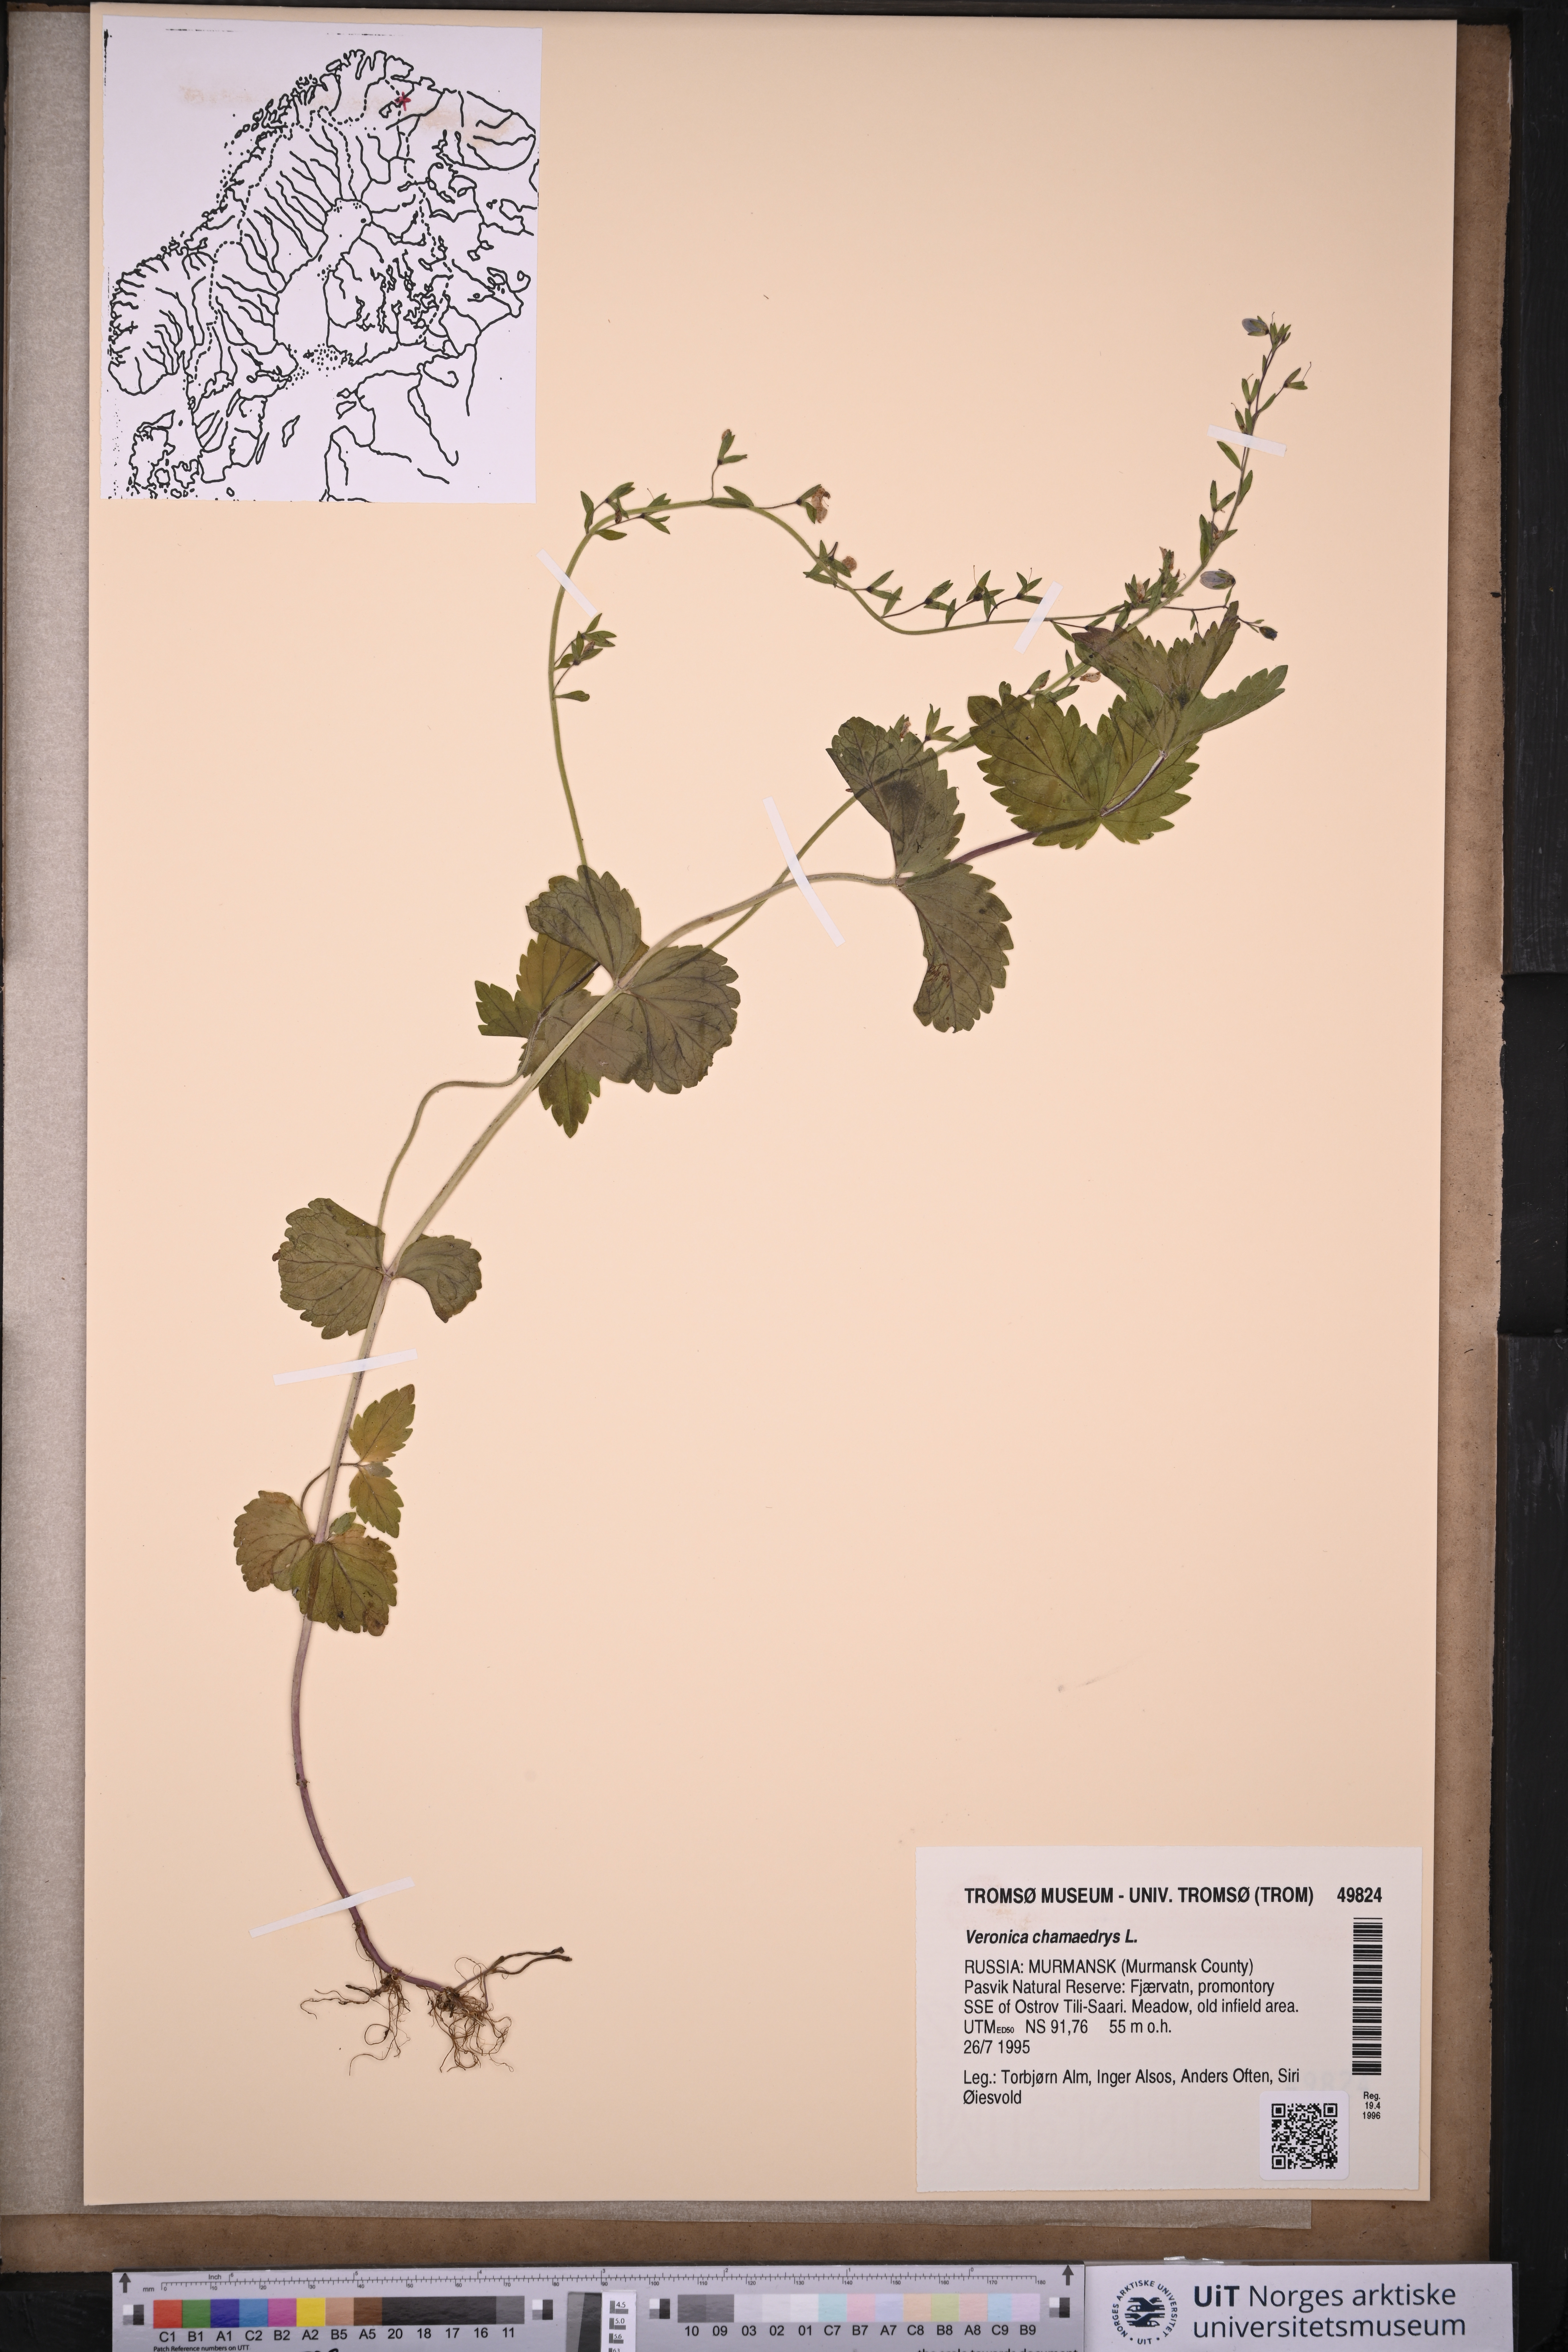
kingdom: Plantae
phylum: Tracheophyta
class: Magnoliopsida
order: Lamiales
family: Plantaginaceae
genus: Veronica
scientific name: Veronica chamaedrys
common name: Germander speedwell
